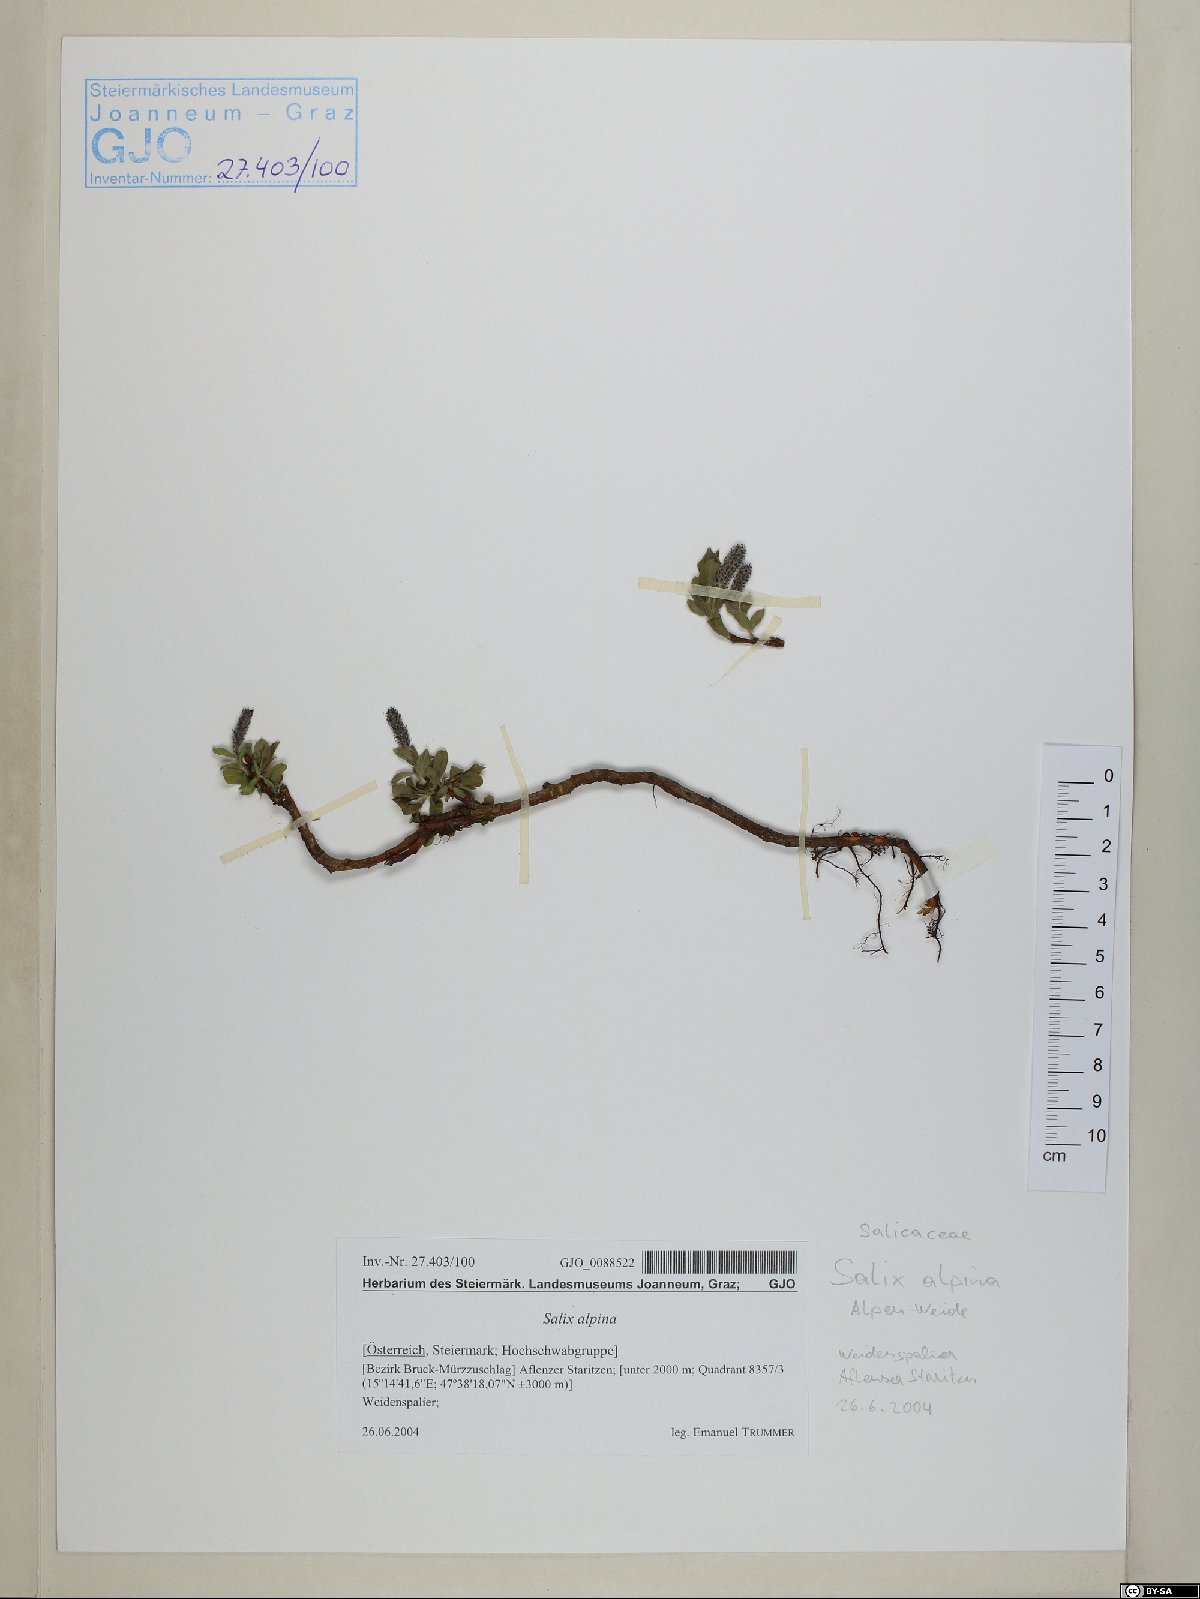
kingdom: Plantae
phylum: Tracheophyta
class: Magnoliopsida
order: Malpighiales
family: Salicaceae
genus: Salix
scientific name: Salix alpina
